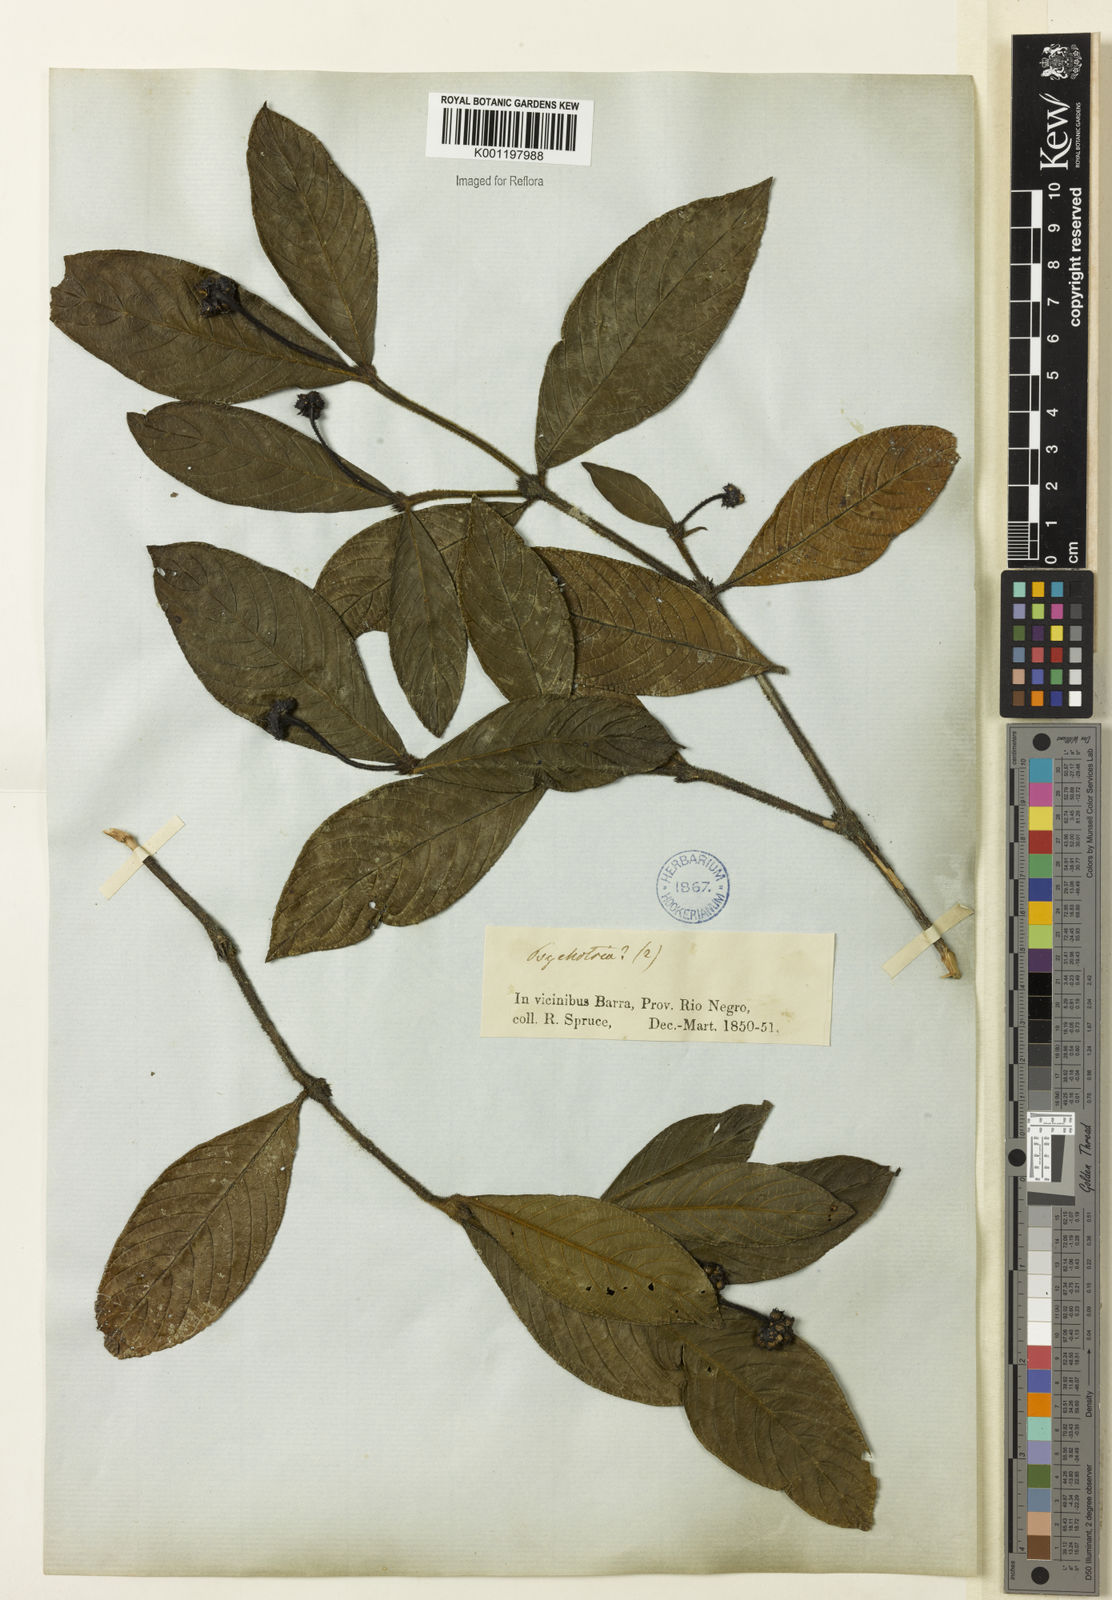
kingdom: Plantae
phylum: Tracheophyta
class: Magnoliopsida
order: Gentianales
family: Rubiaceae
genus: Psychotria
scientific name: Psychotria
